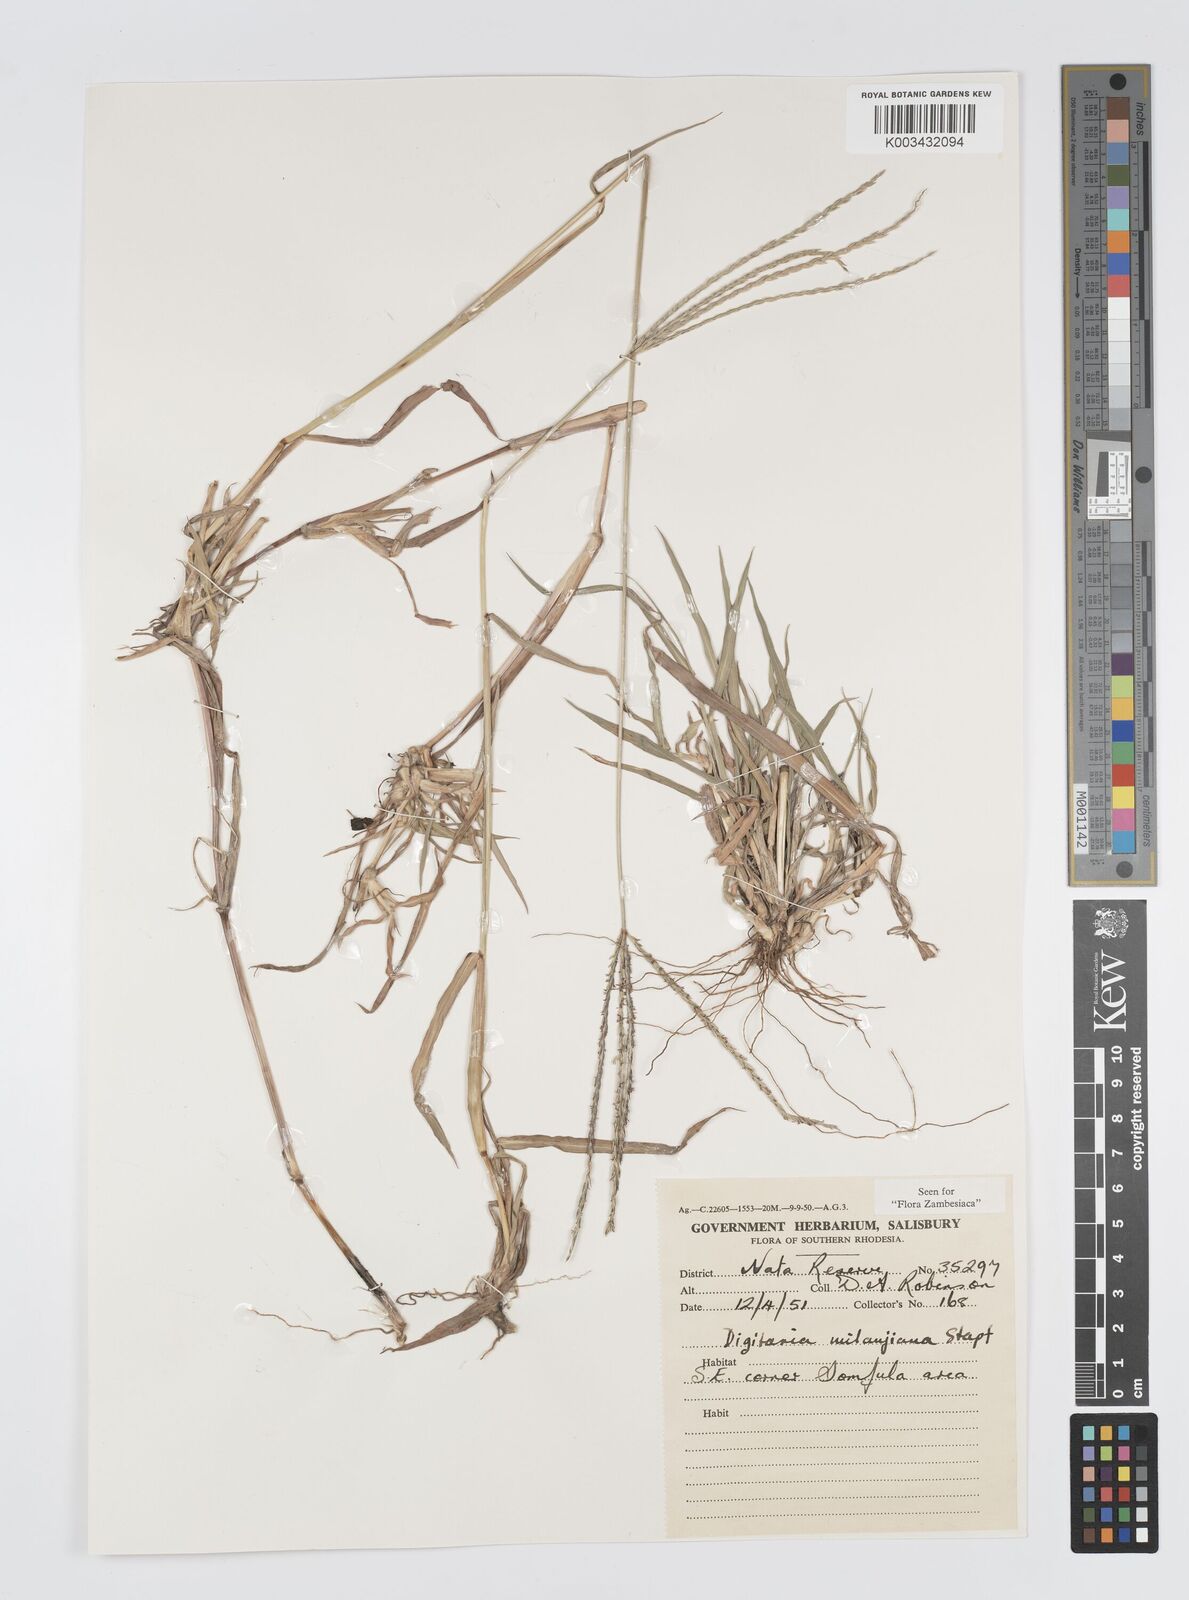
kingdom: Plantae
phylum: Tracheophyta
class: Liliopsida
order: Poales
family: Poaceae
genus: Digitaria
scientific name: Digitaria milanjiana
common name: Madagascar crabgrass
